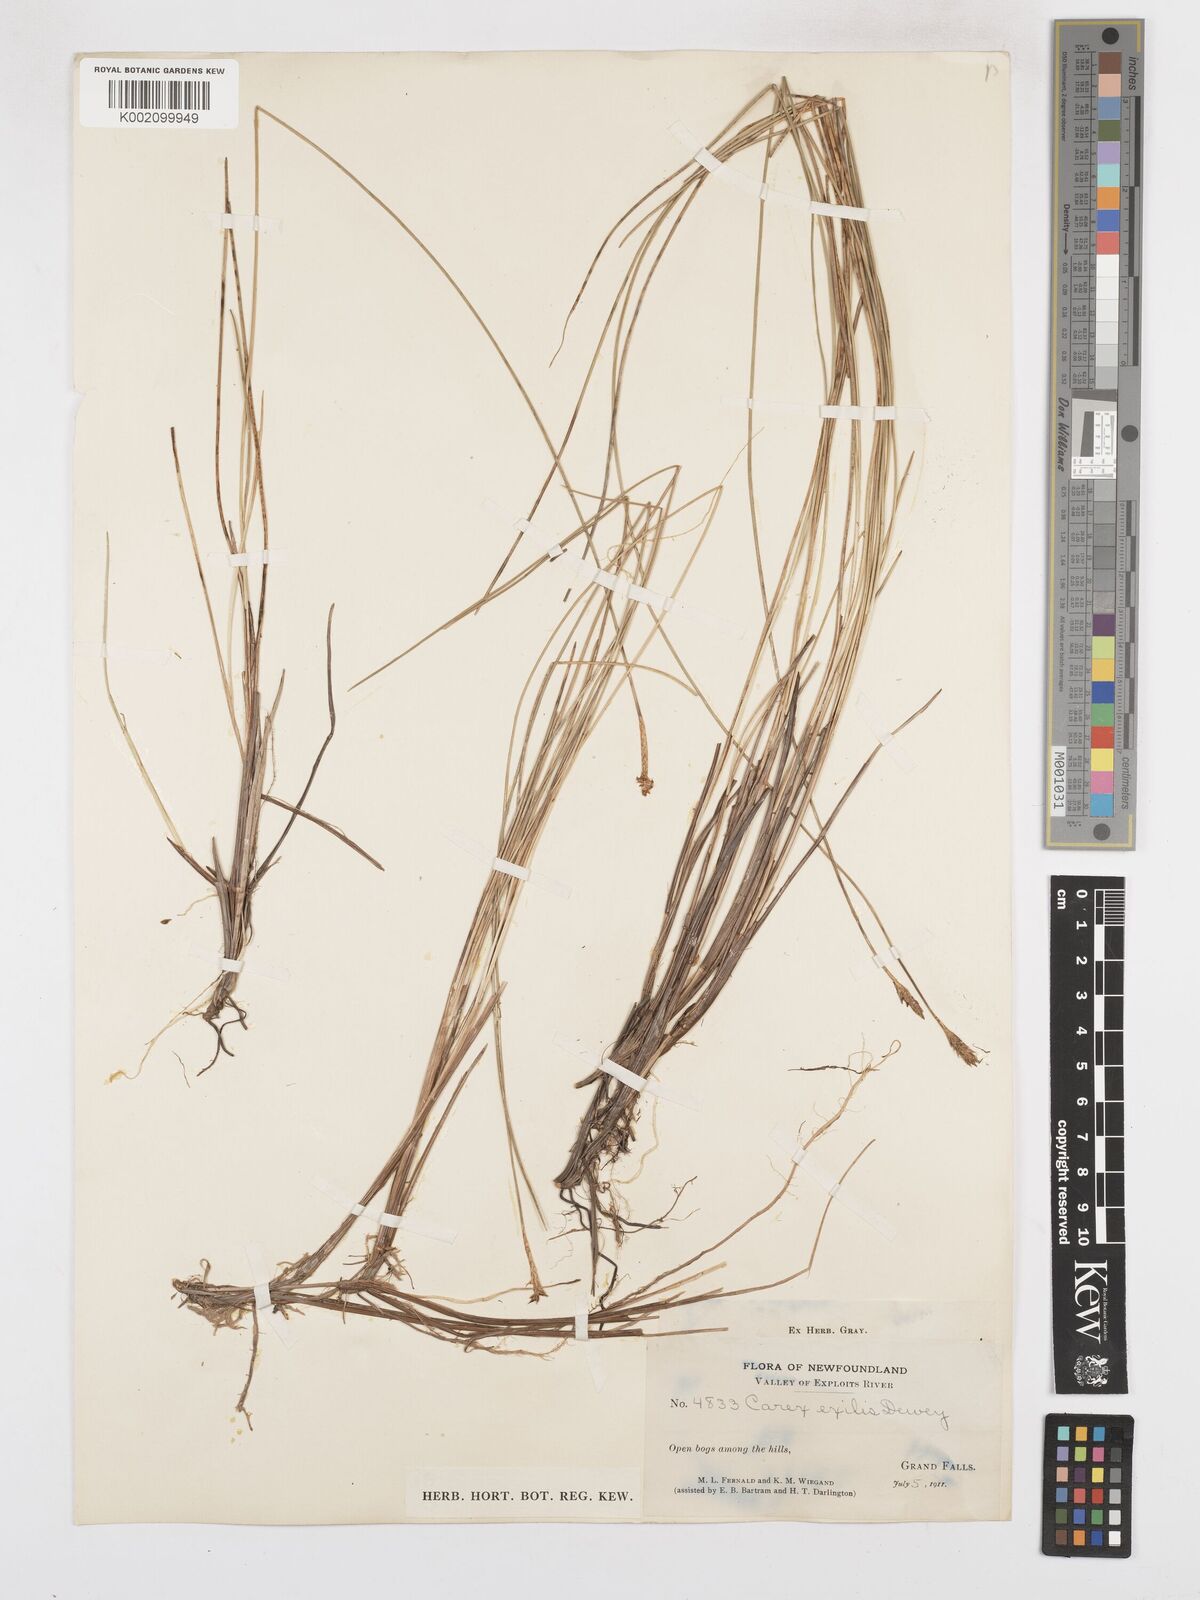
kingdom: Plantae
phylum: Tracheophyta
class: Liliopsida
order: Poales
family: Cyperaceae
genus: Carex
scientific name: Carex exilis
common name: Coastal sedge
